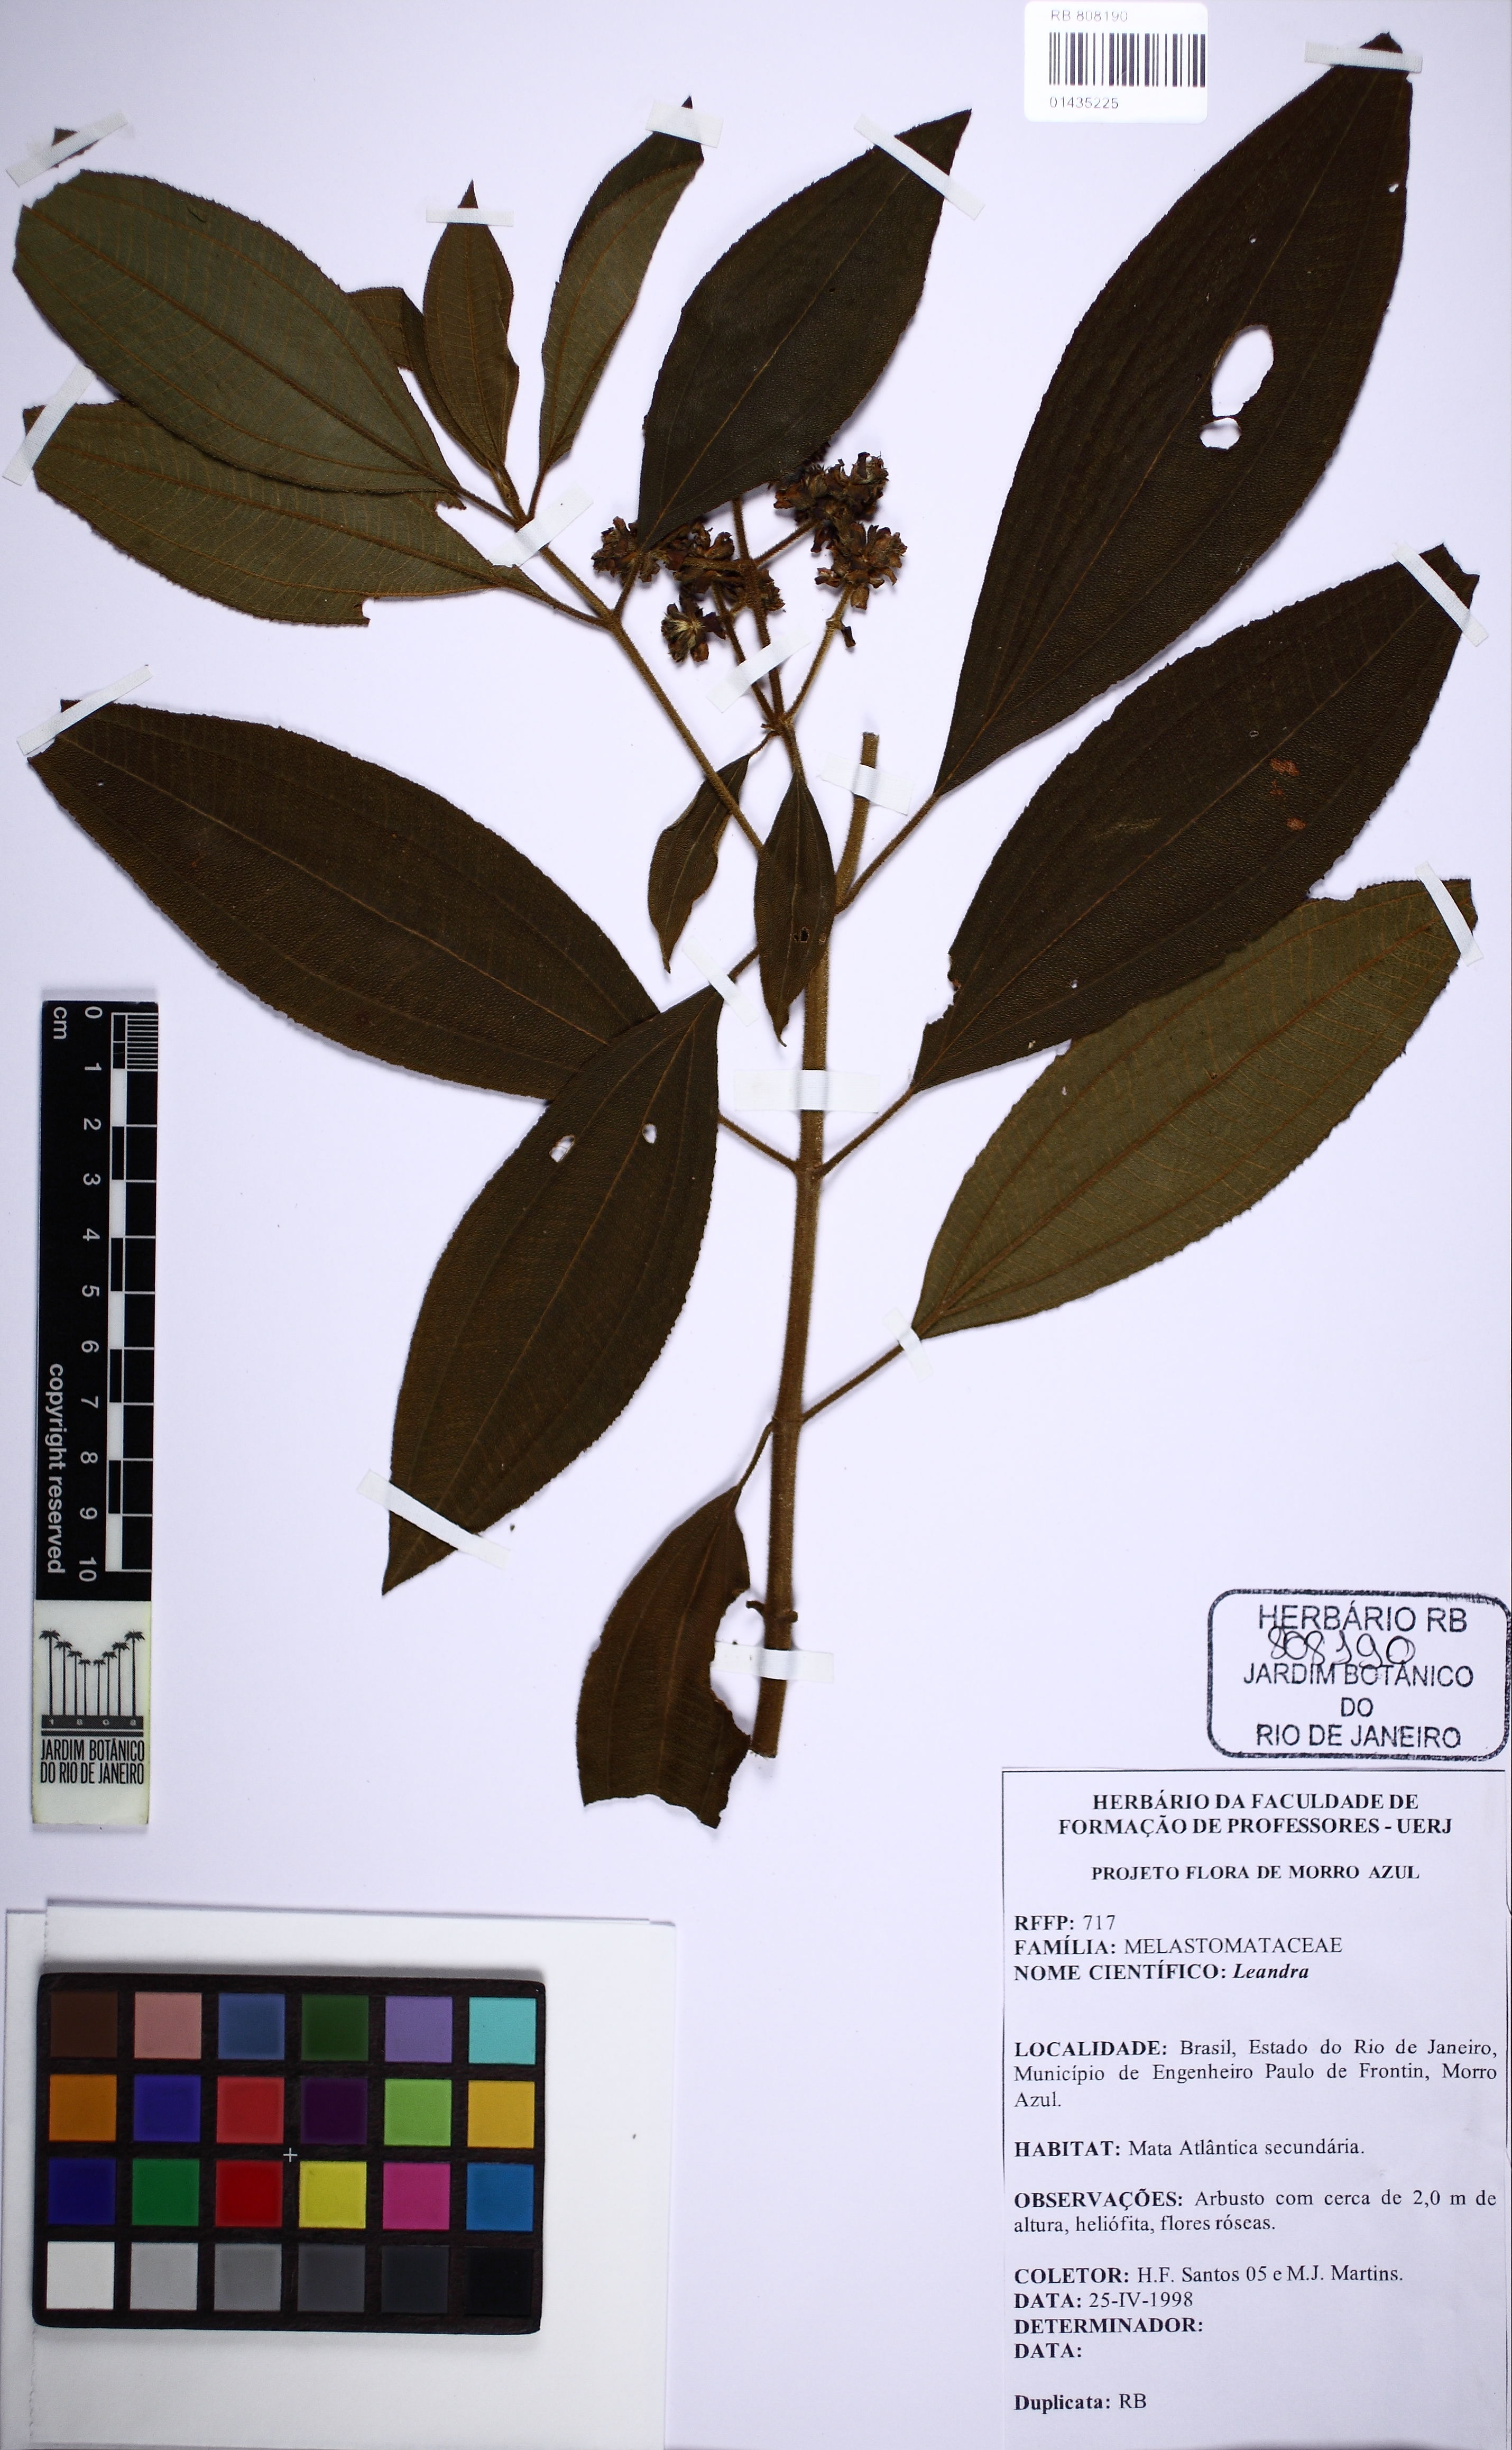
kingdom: Plantae
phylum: Tracheophyta
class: Magnoliopsida
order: Myrtales
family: Melastomataceae
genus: Miconia
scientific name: Miconia
